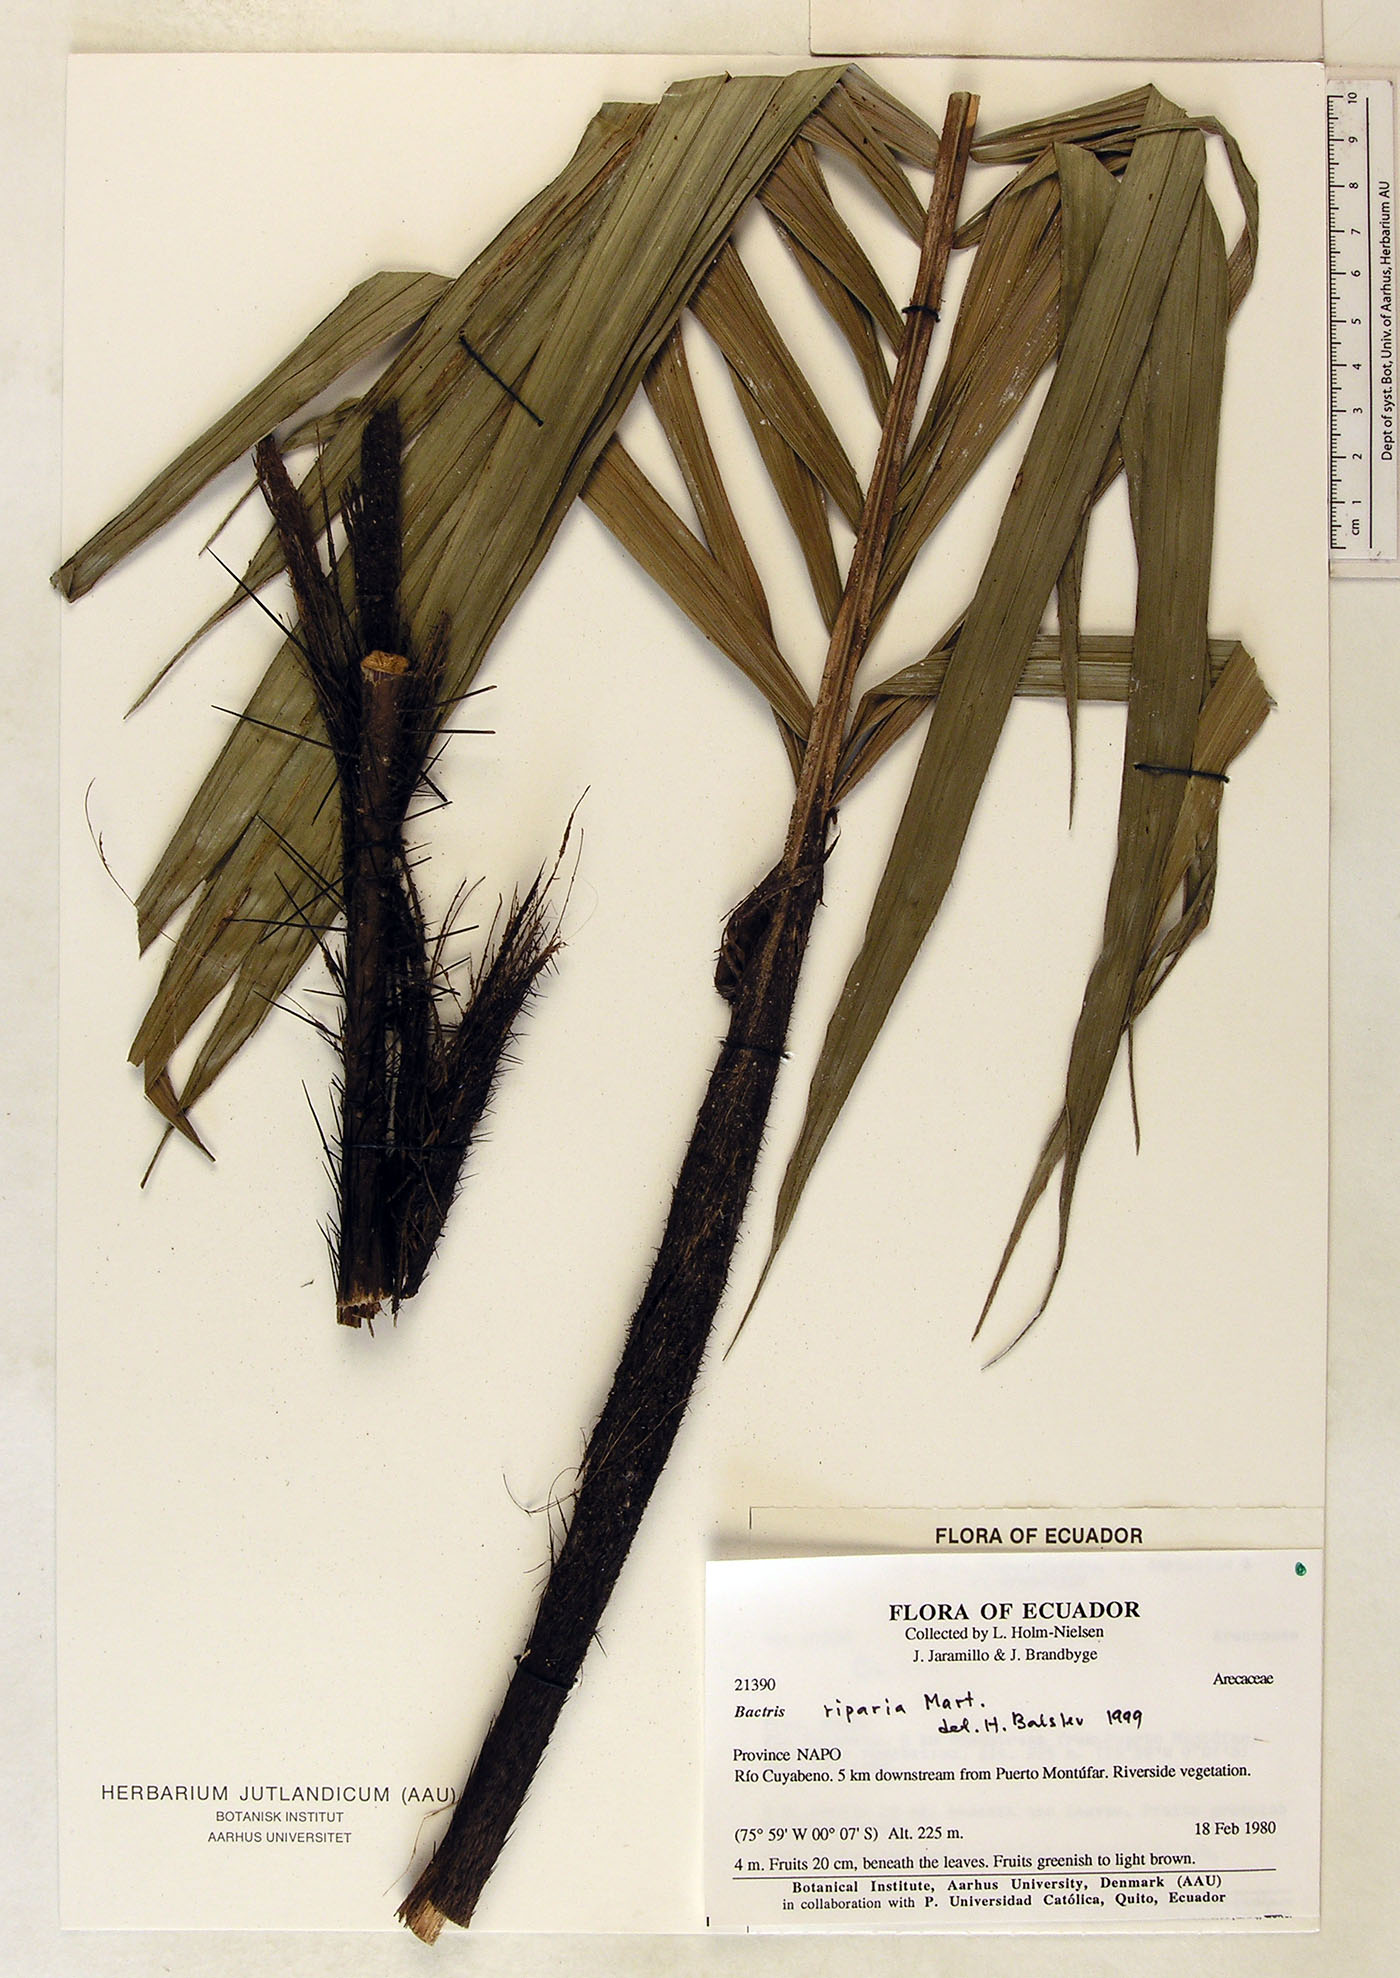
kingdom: Plantae
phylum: Tracheophyta
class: Liliopsida
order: Arecales
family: Arecaceae
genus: Bactris
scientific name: Bactris riparia
